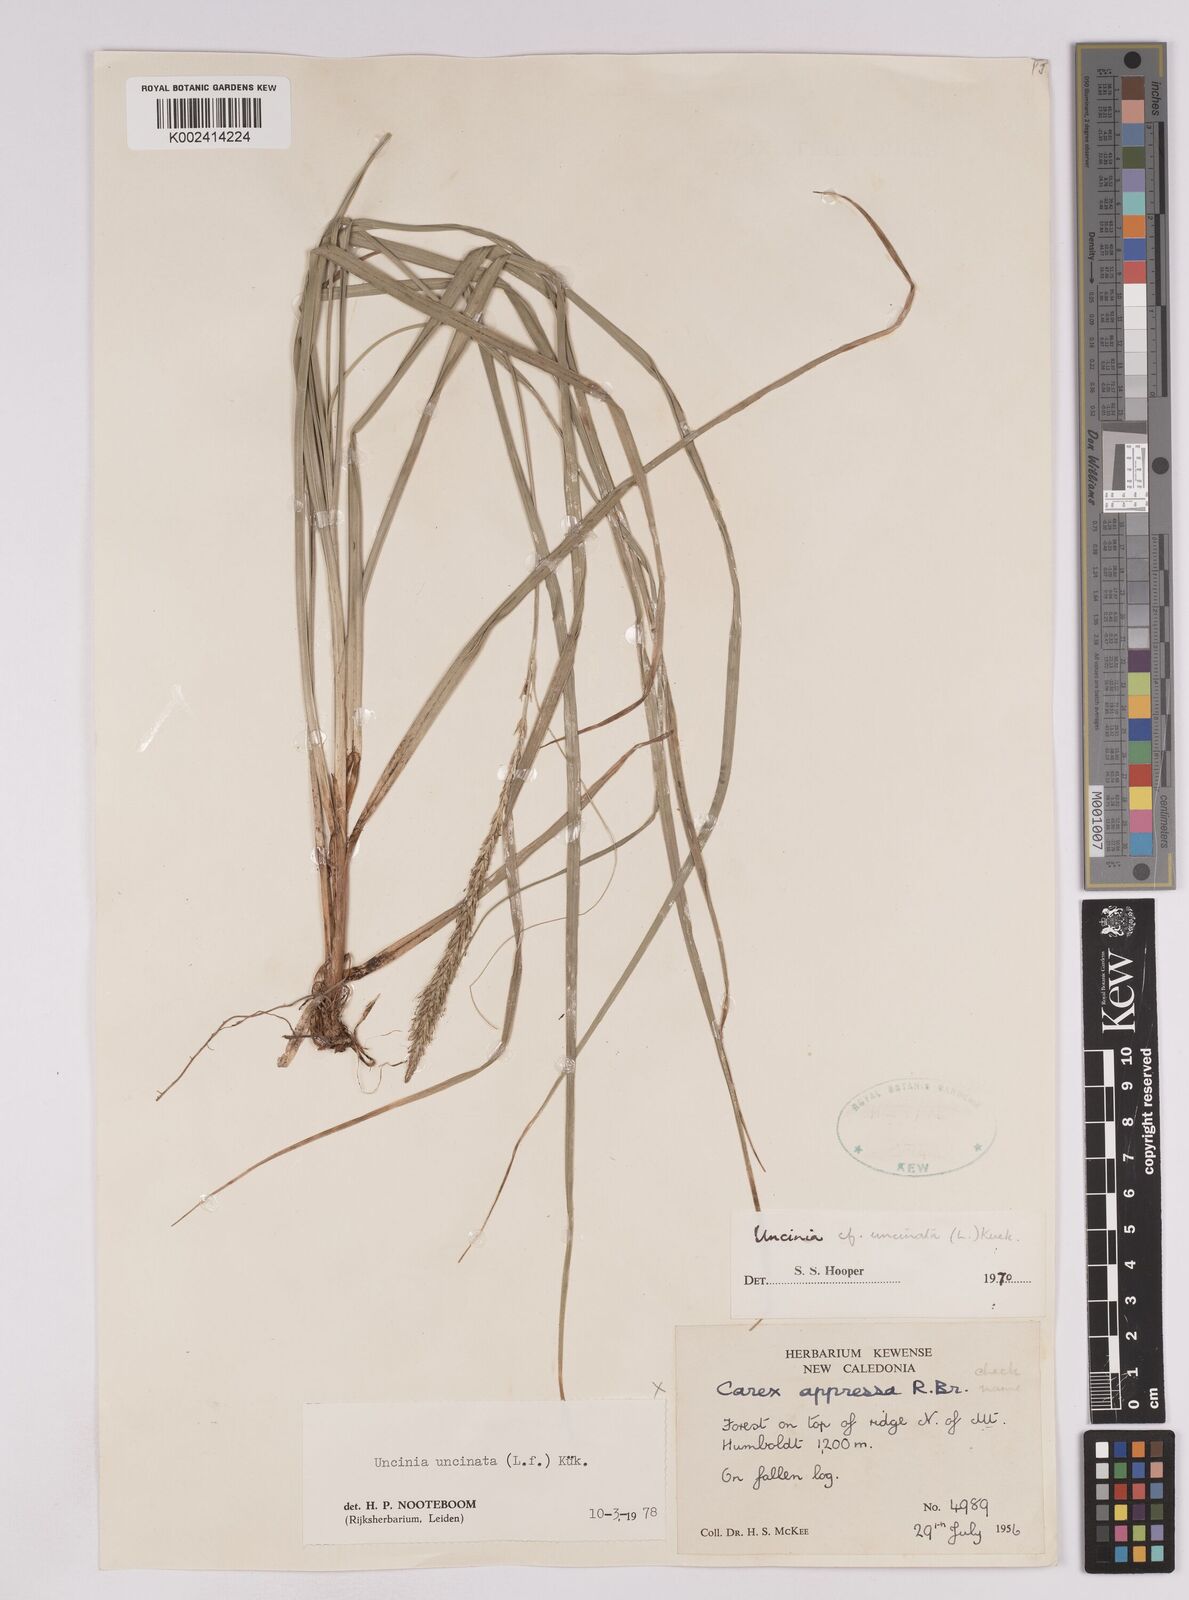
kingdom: Plantae
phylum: Tracheophyta
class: Liliopsida
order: Poales
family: Cyperaceae
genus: Carex
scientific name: Carex uncinata
